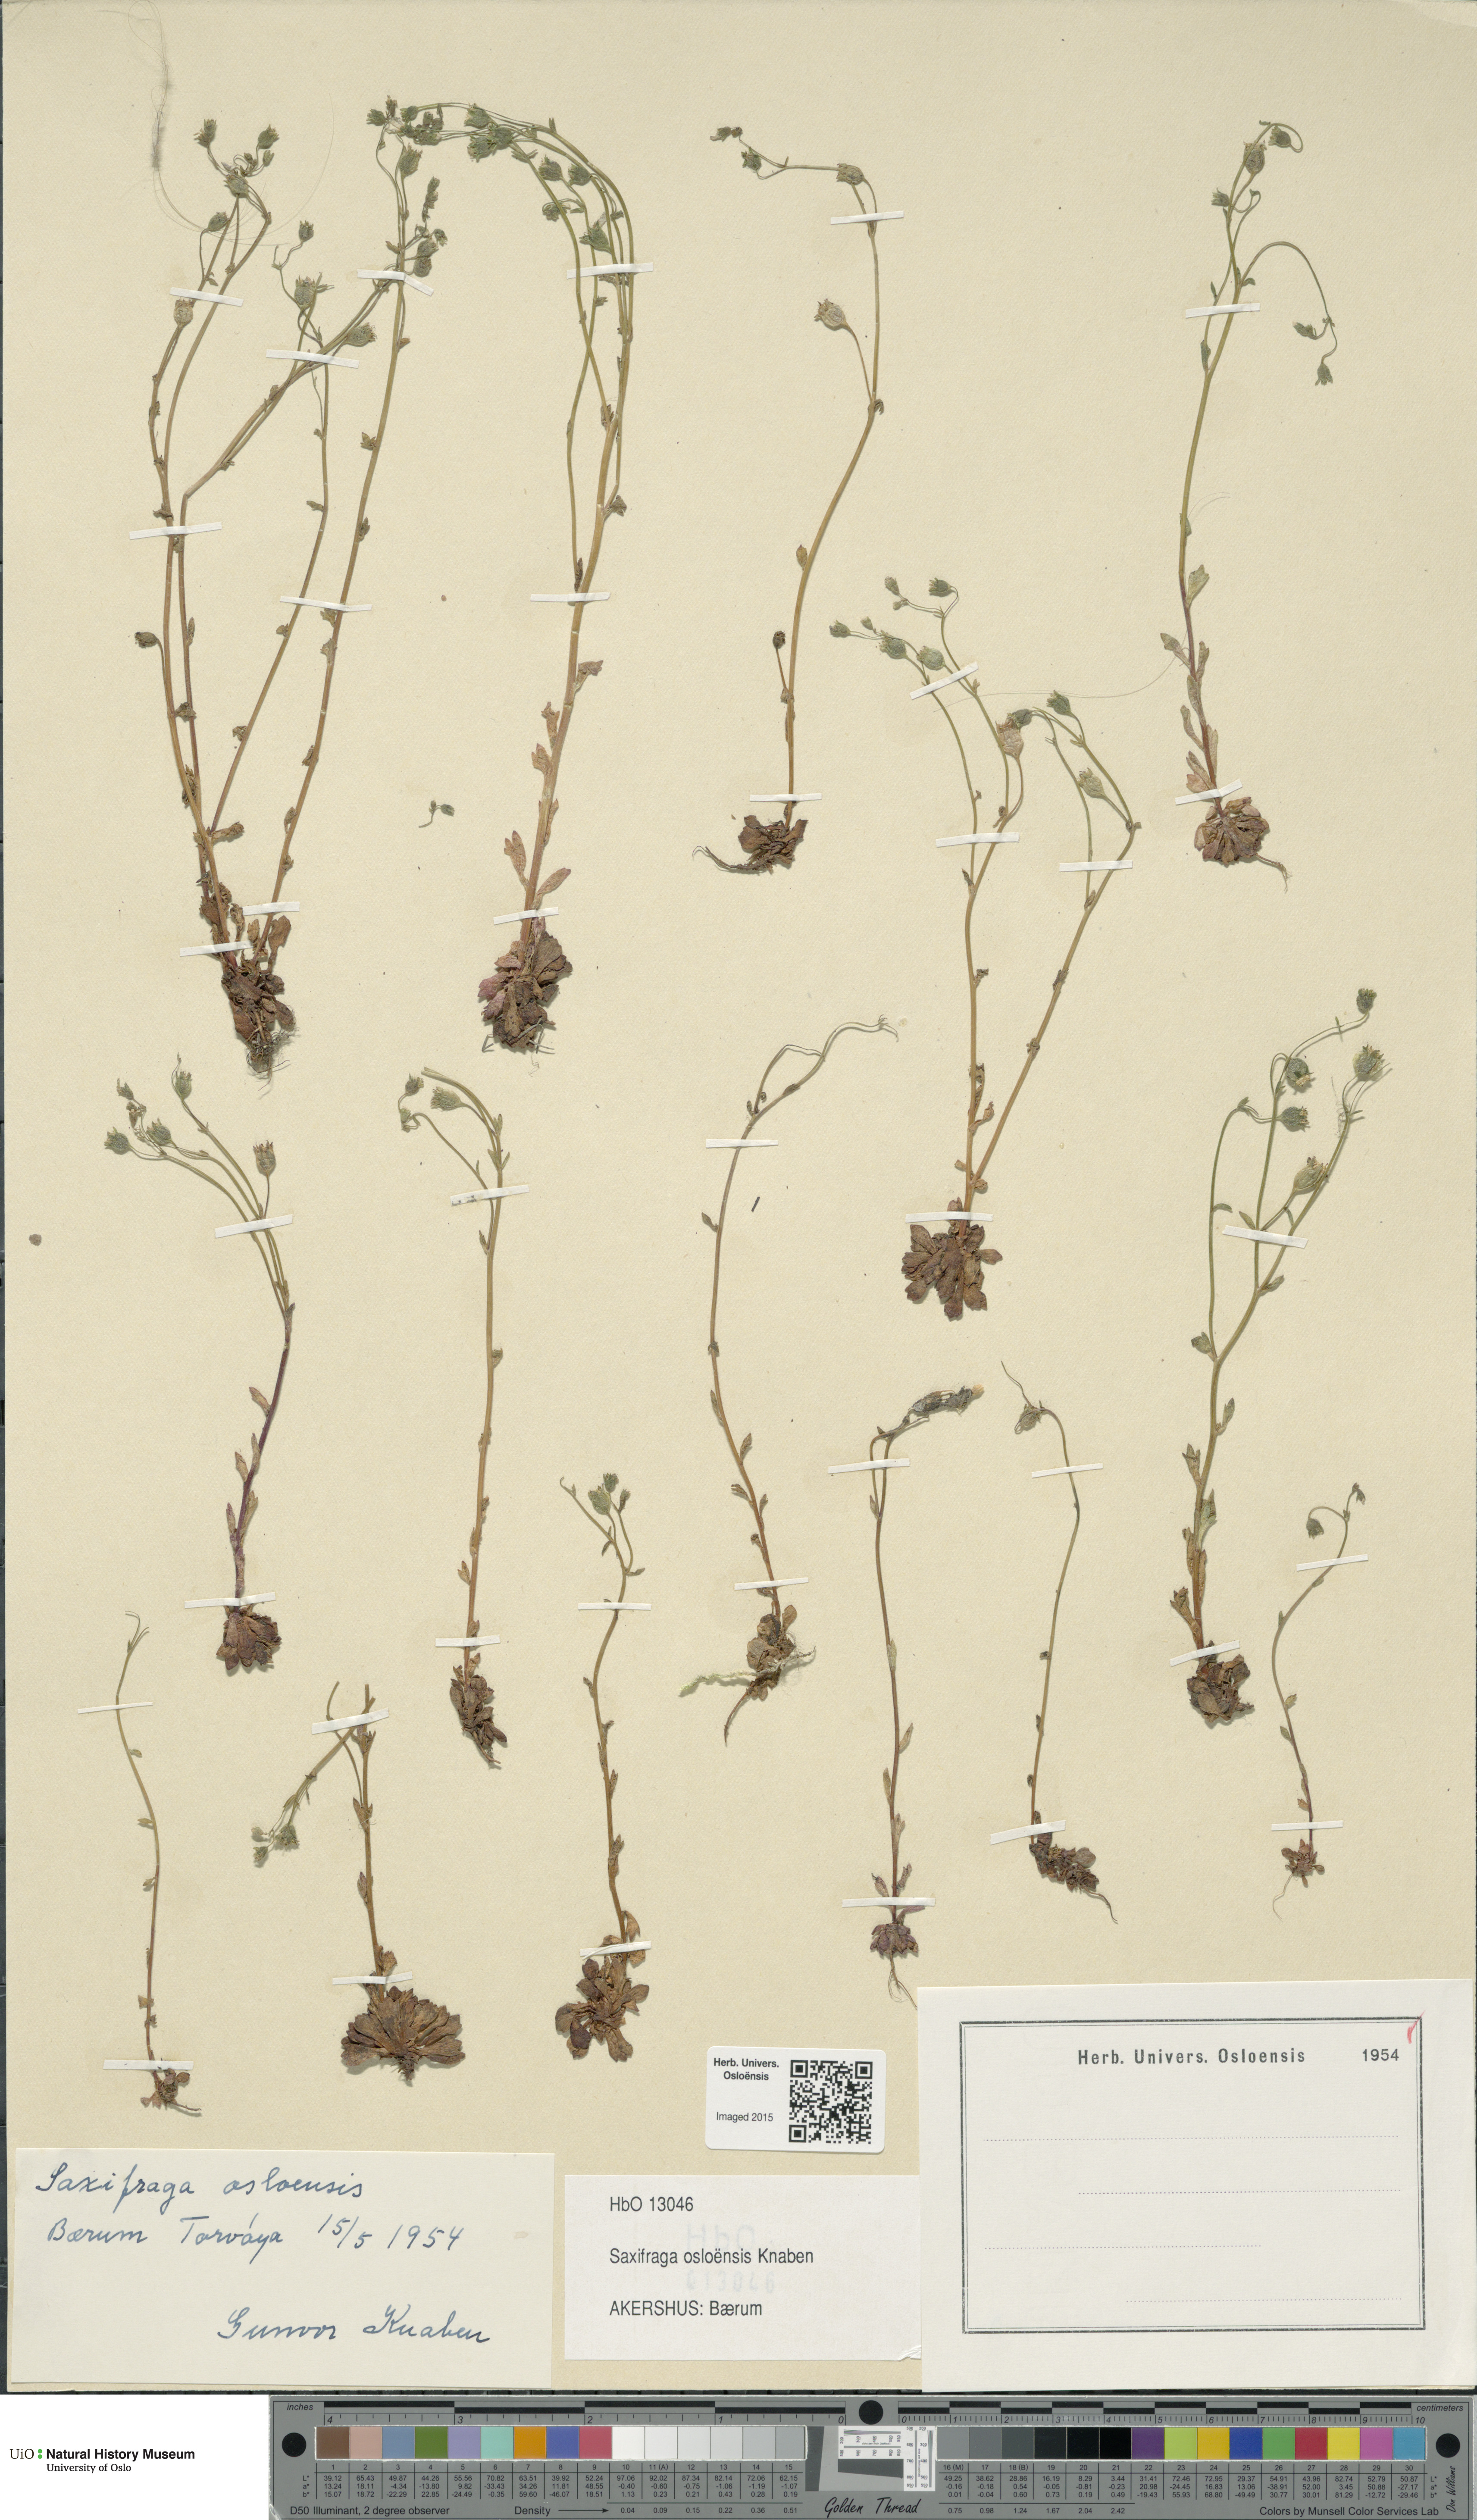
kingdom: Plantae
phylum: Tracheophyta
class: Magnoliopsida
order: Saxifragales
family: Saxifragaceae
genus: Saxifraga
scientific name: Saxifraga osloensis
